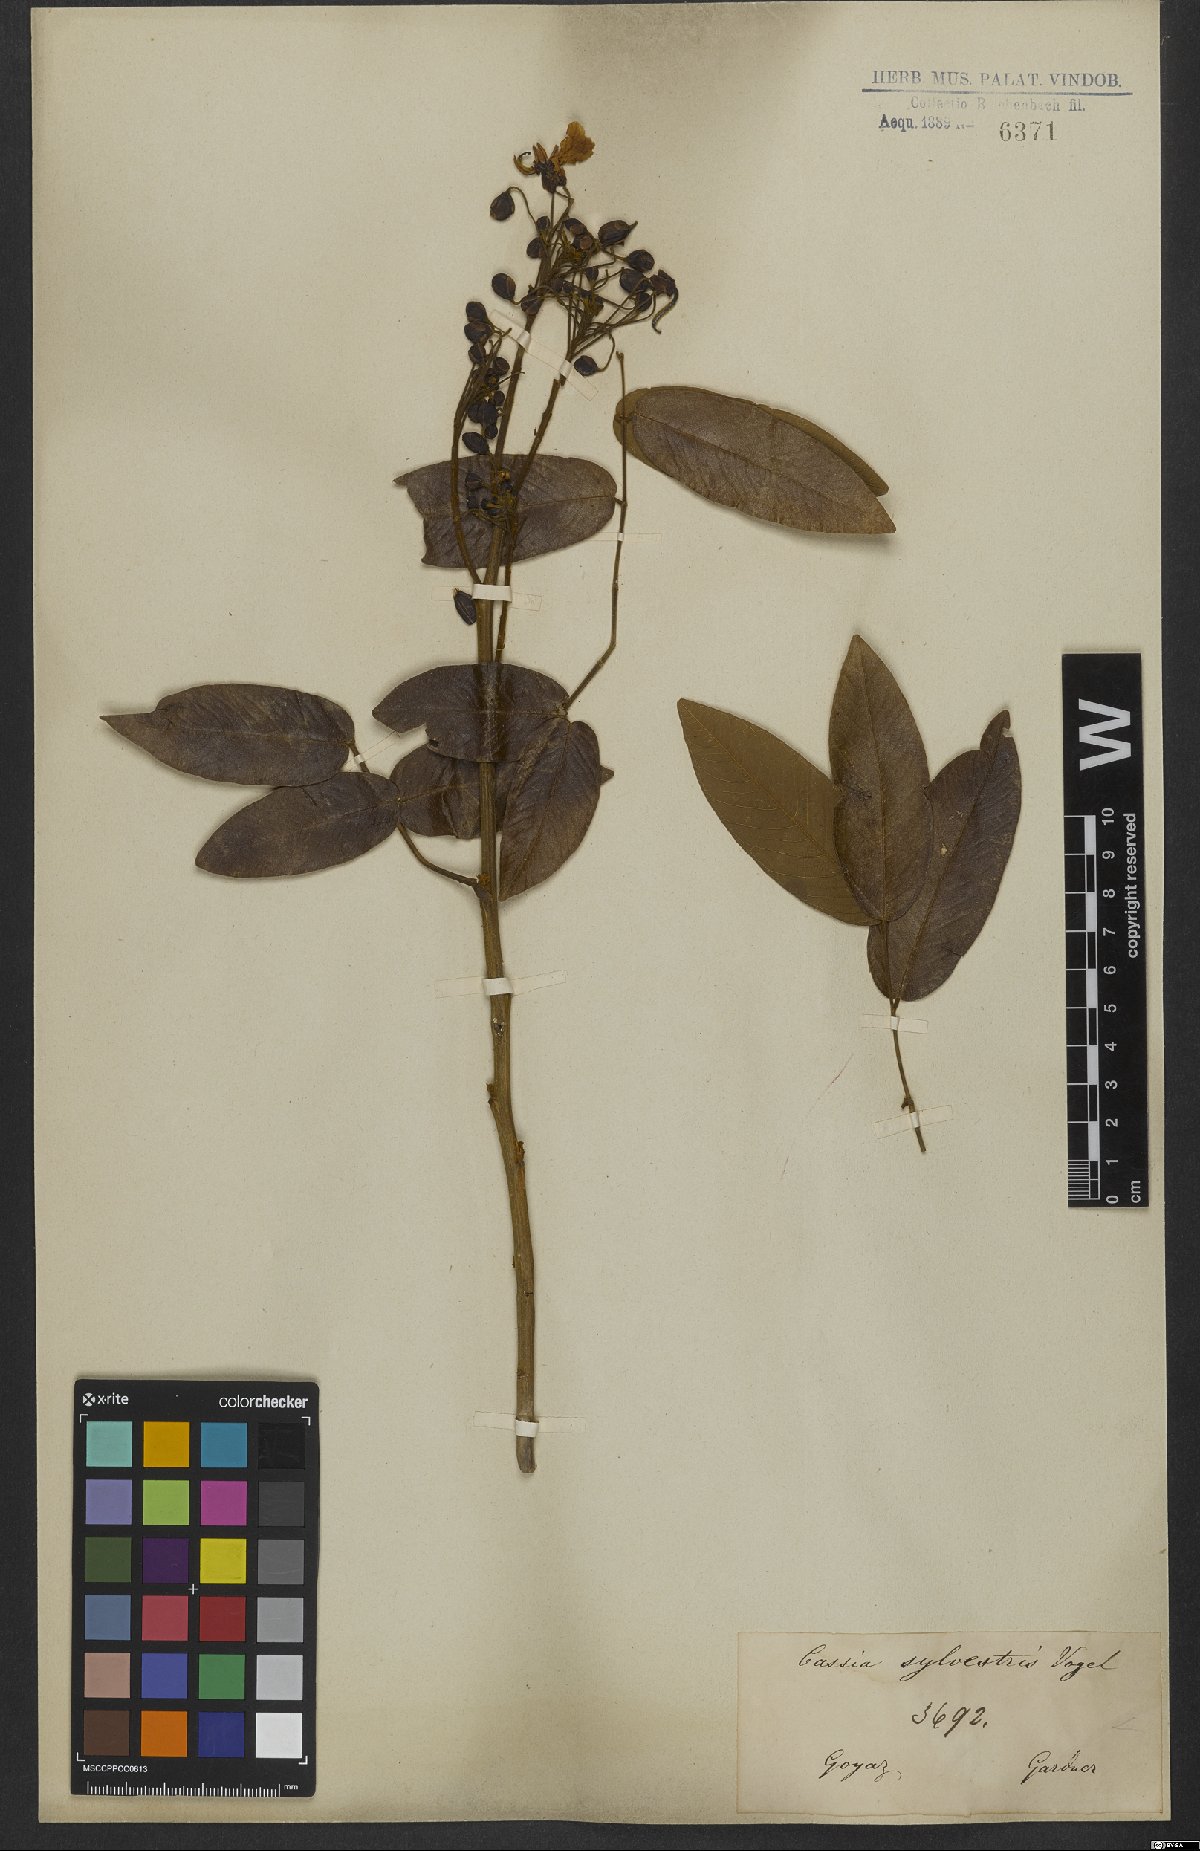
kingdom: Plantae
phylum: Tracheophyta
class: Magnoliopsida
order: Fabales
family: Fabaceae
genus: Senna
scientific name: Senna silvestris
